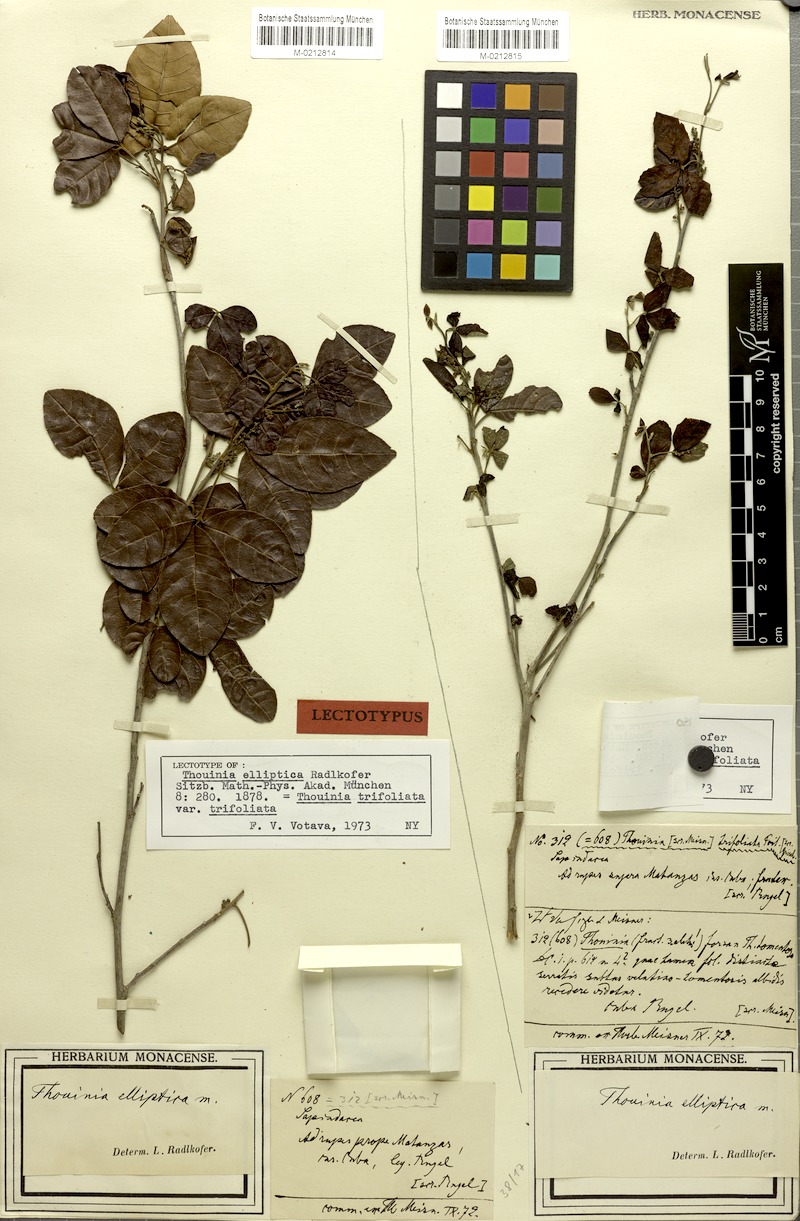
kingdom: Plantae
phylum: Tracheophyta
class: Magnoliopsida
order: Sapindales
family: Sapindaceae
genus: Thouinia
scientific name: Thouinia trifoliata
